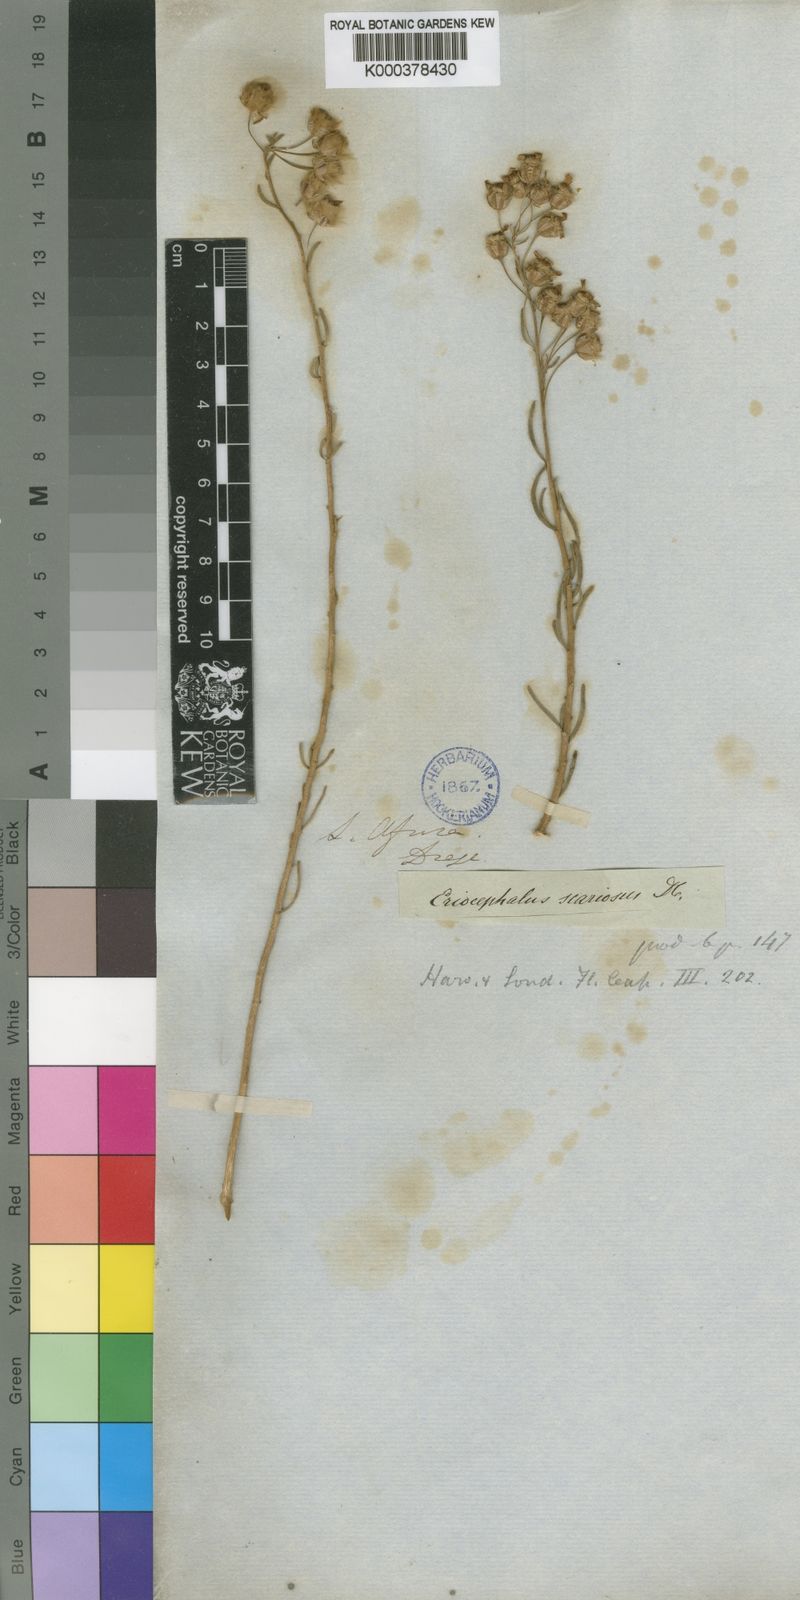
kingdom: Plantae
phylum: Tracheophyta
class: Magnoliopsida
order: Asterales
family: Asteraceae
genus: Eriocephalus
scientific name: Eriocephalus scariosus
